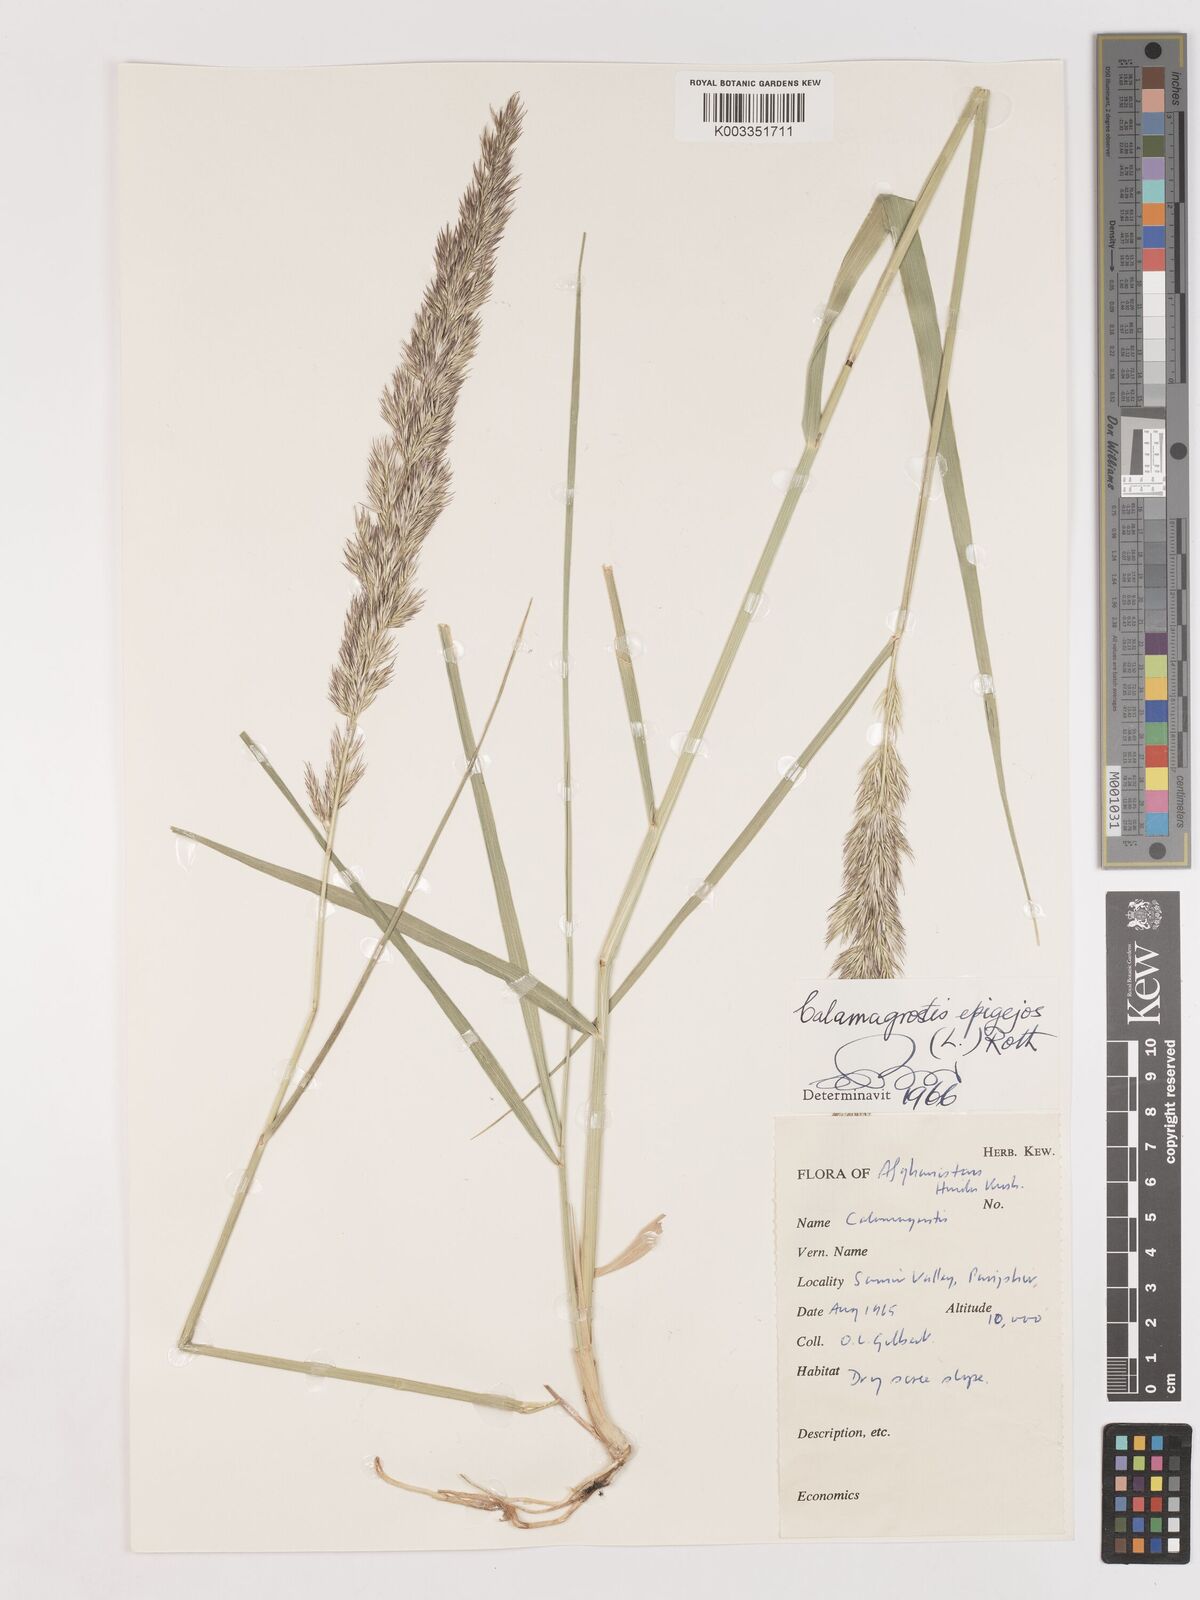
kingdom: Plantae
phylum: Tracheophyta
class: Liliopsida
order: Poales
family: Poaceae
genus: Calamagrostis
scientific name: Calamagrostis epigejos
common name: Wood small-reed
